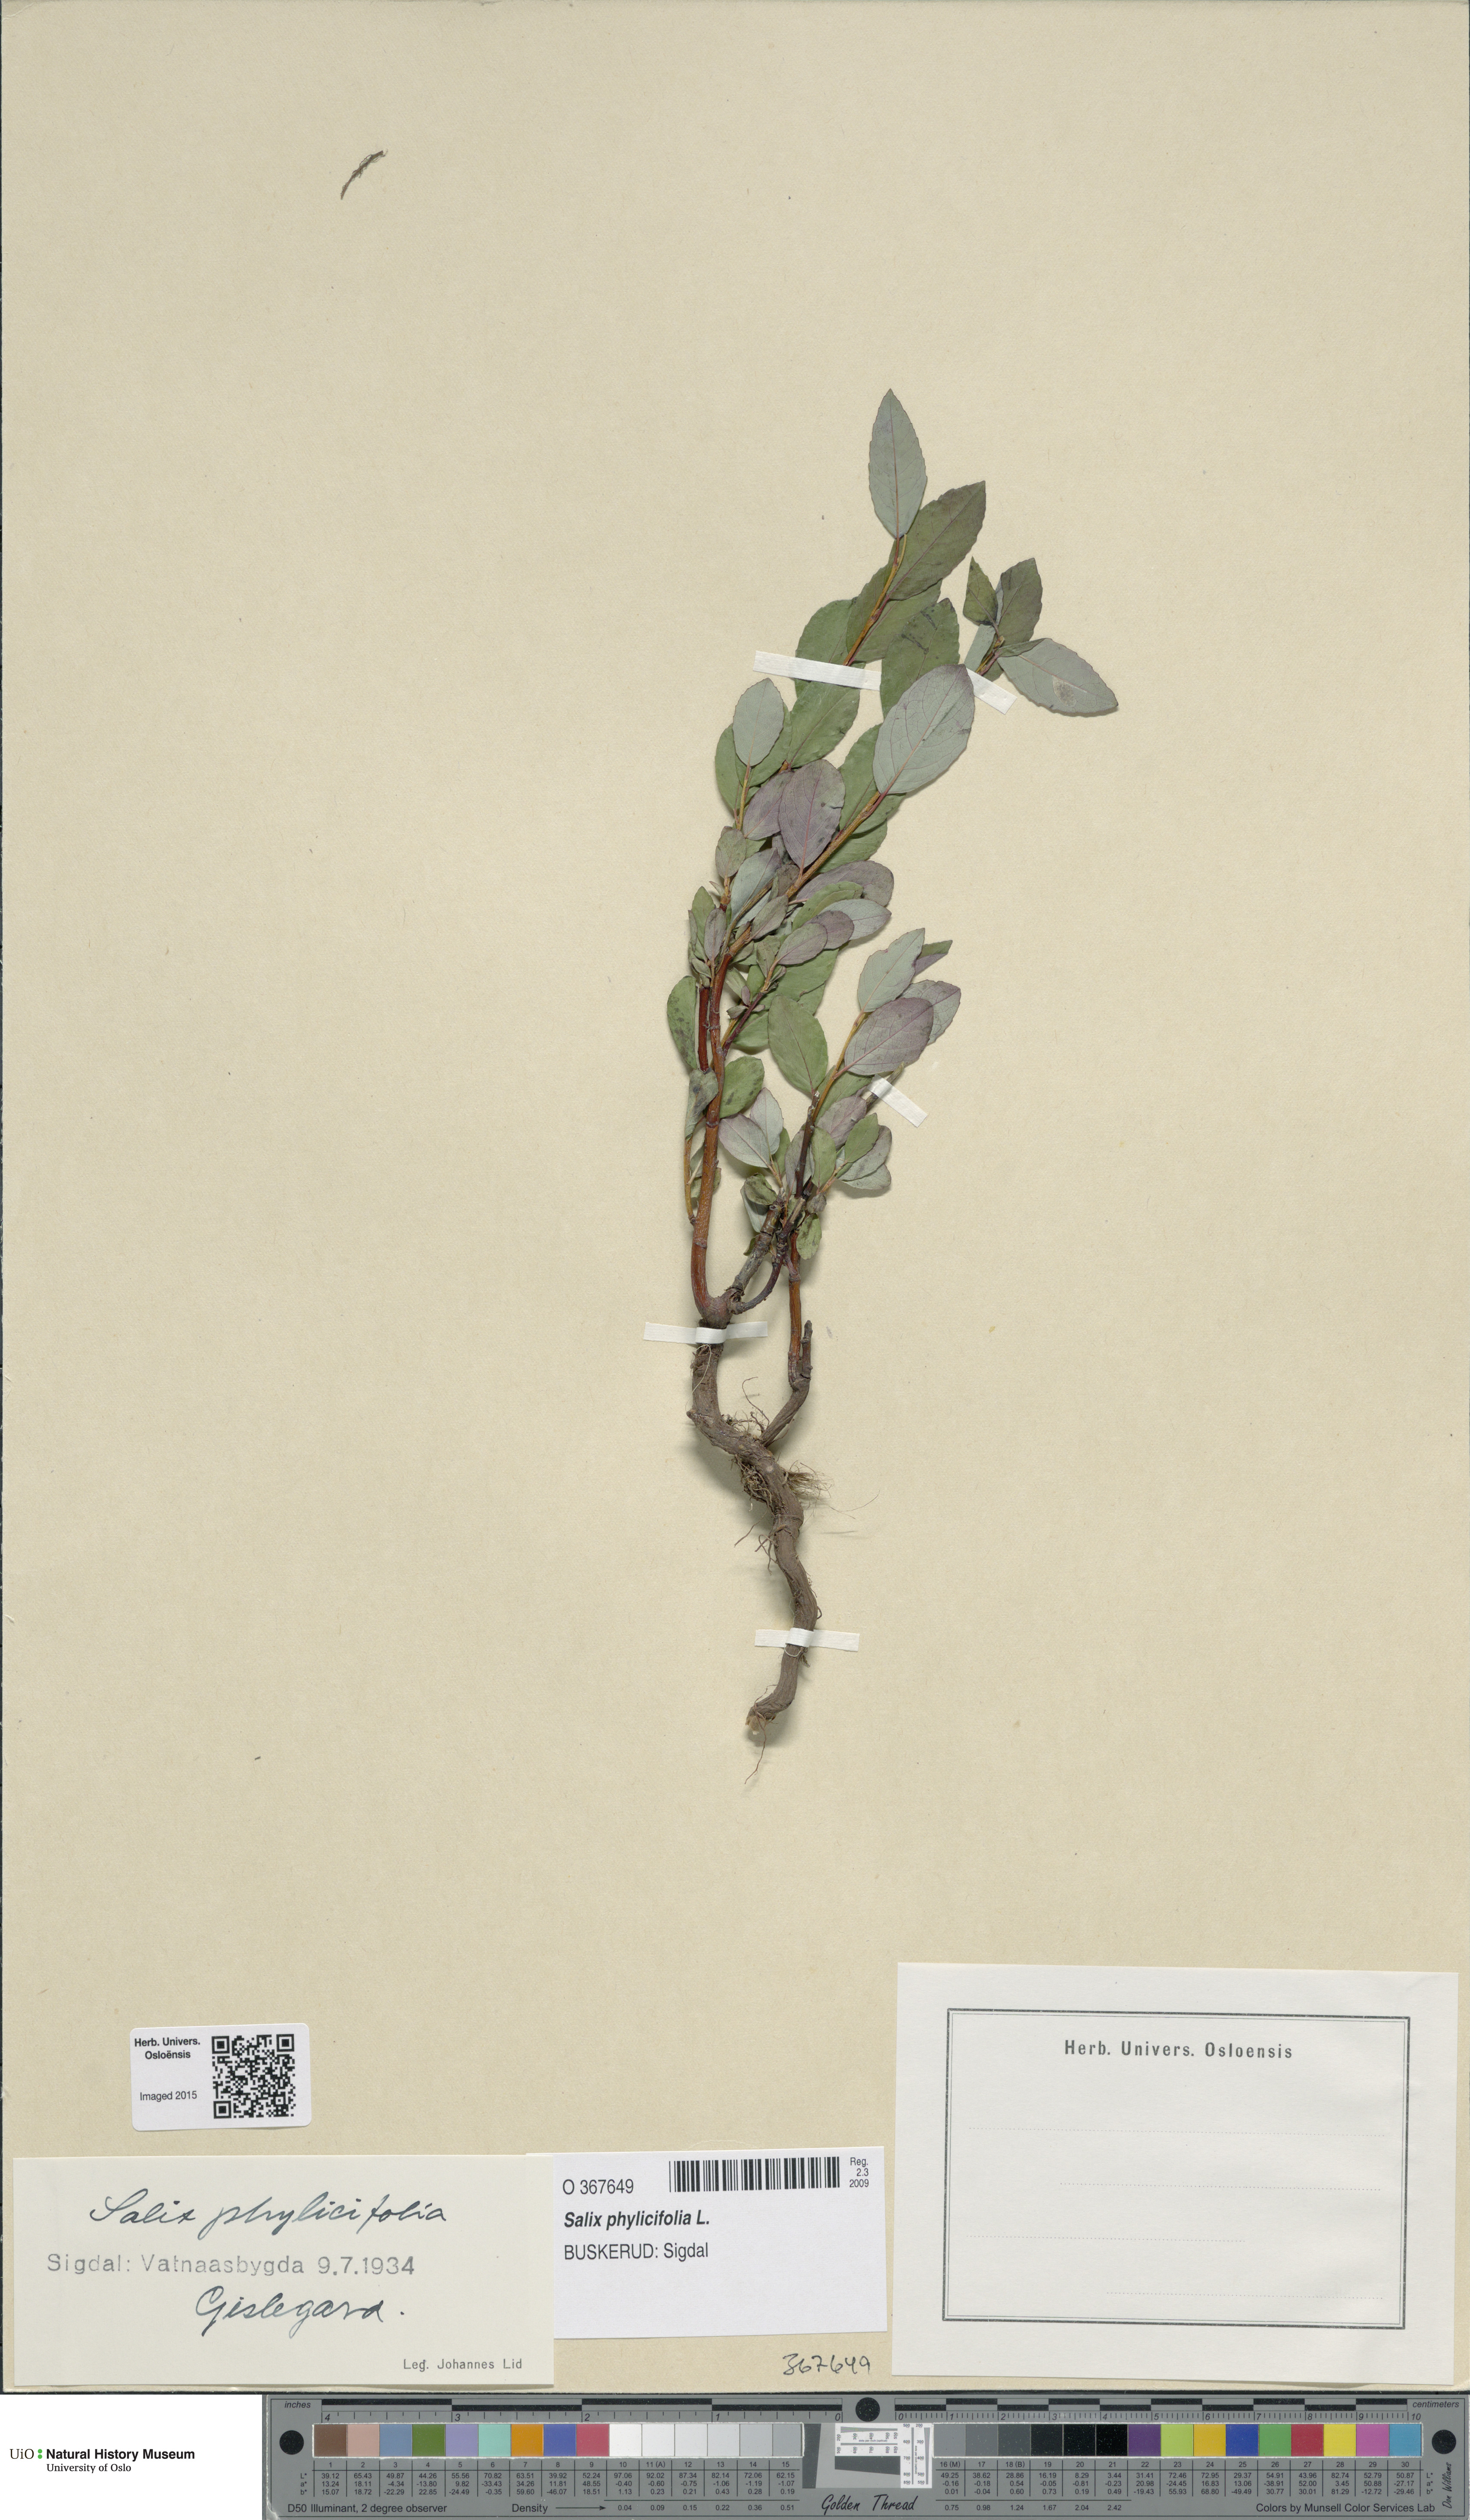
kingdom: Plantae
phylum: Tracheophyta
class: Magnoliopsida
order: Malpighiales
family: Salicaceae
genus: Salix
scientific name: Salix phylicifolia
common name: Tea-leaved willow
